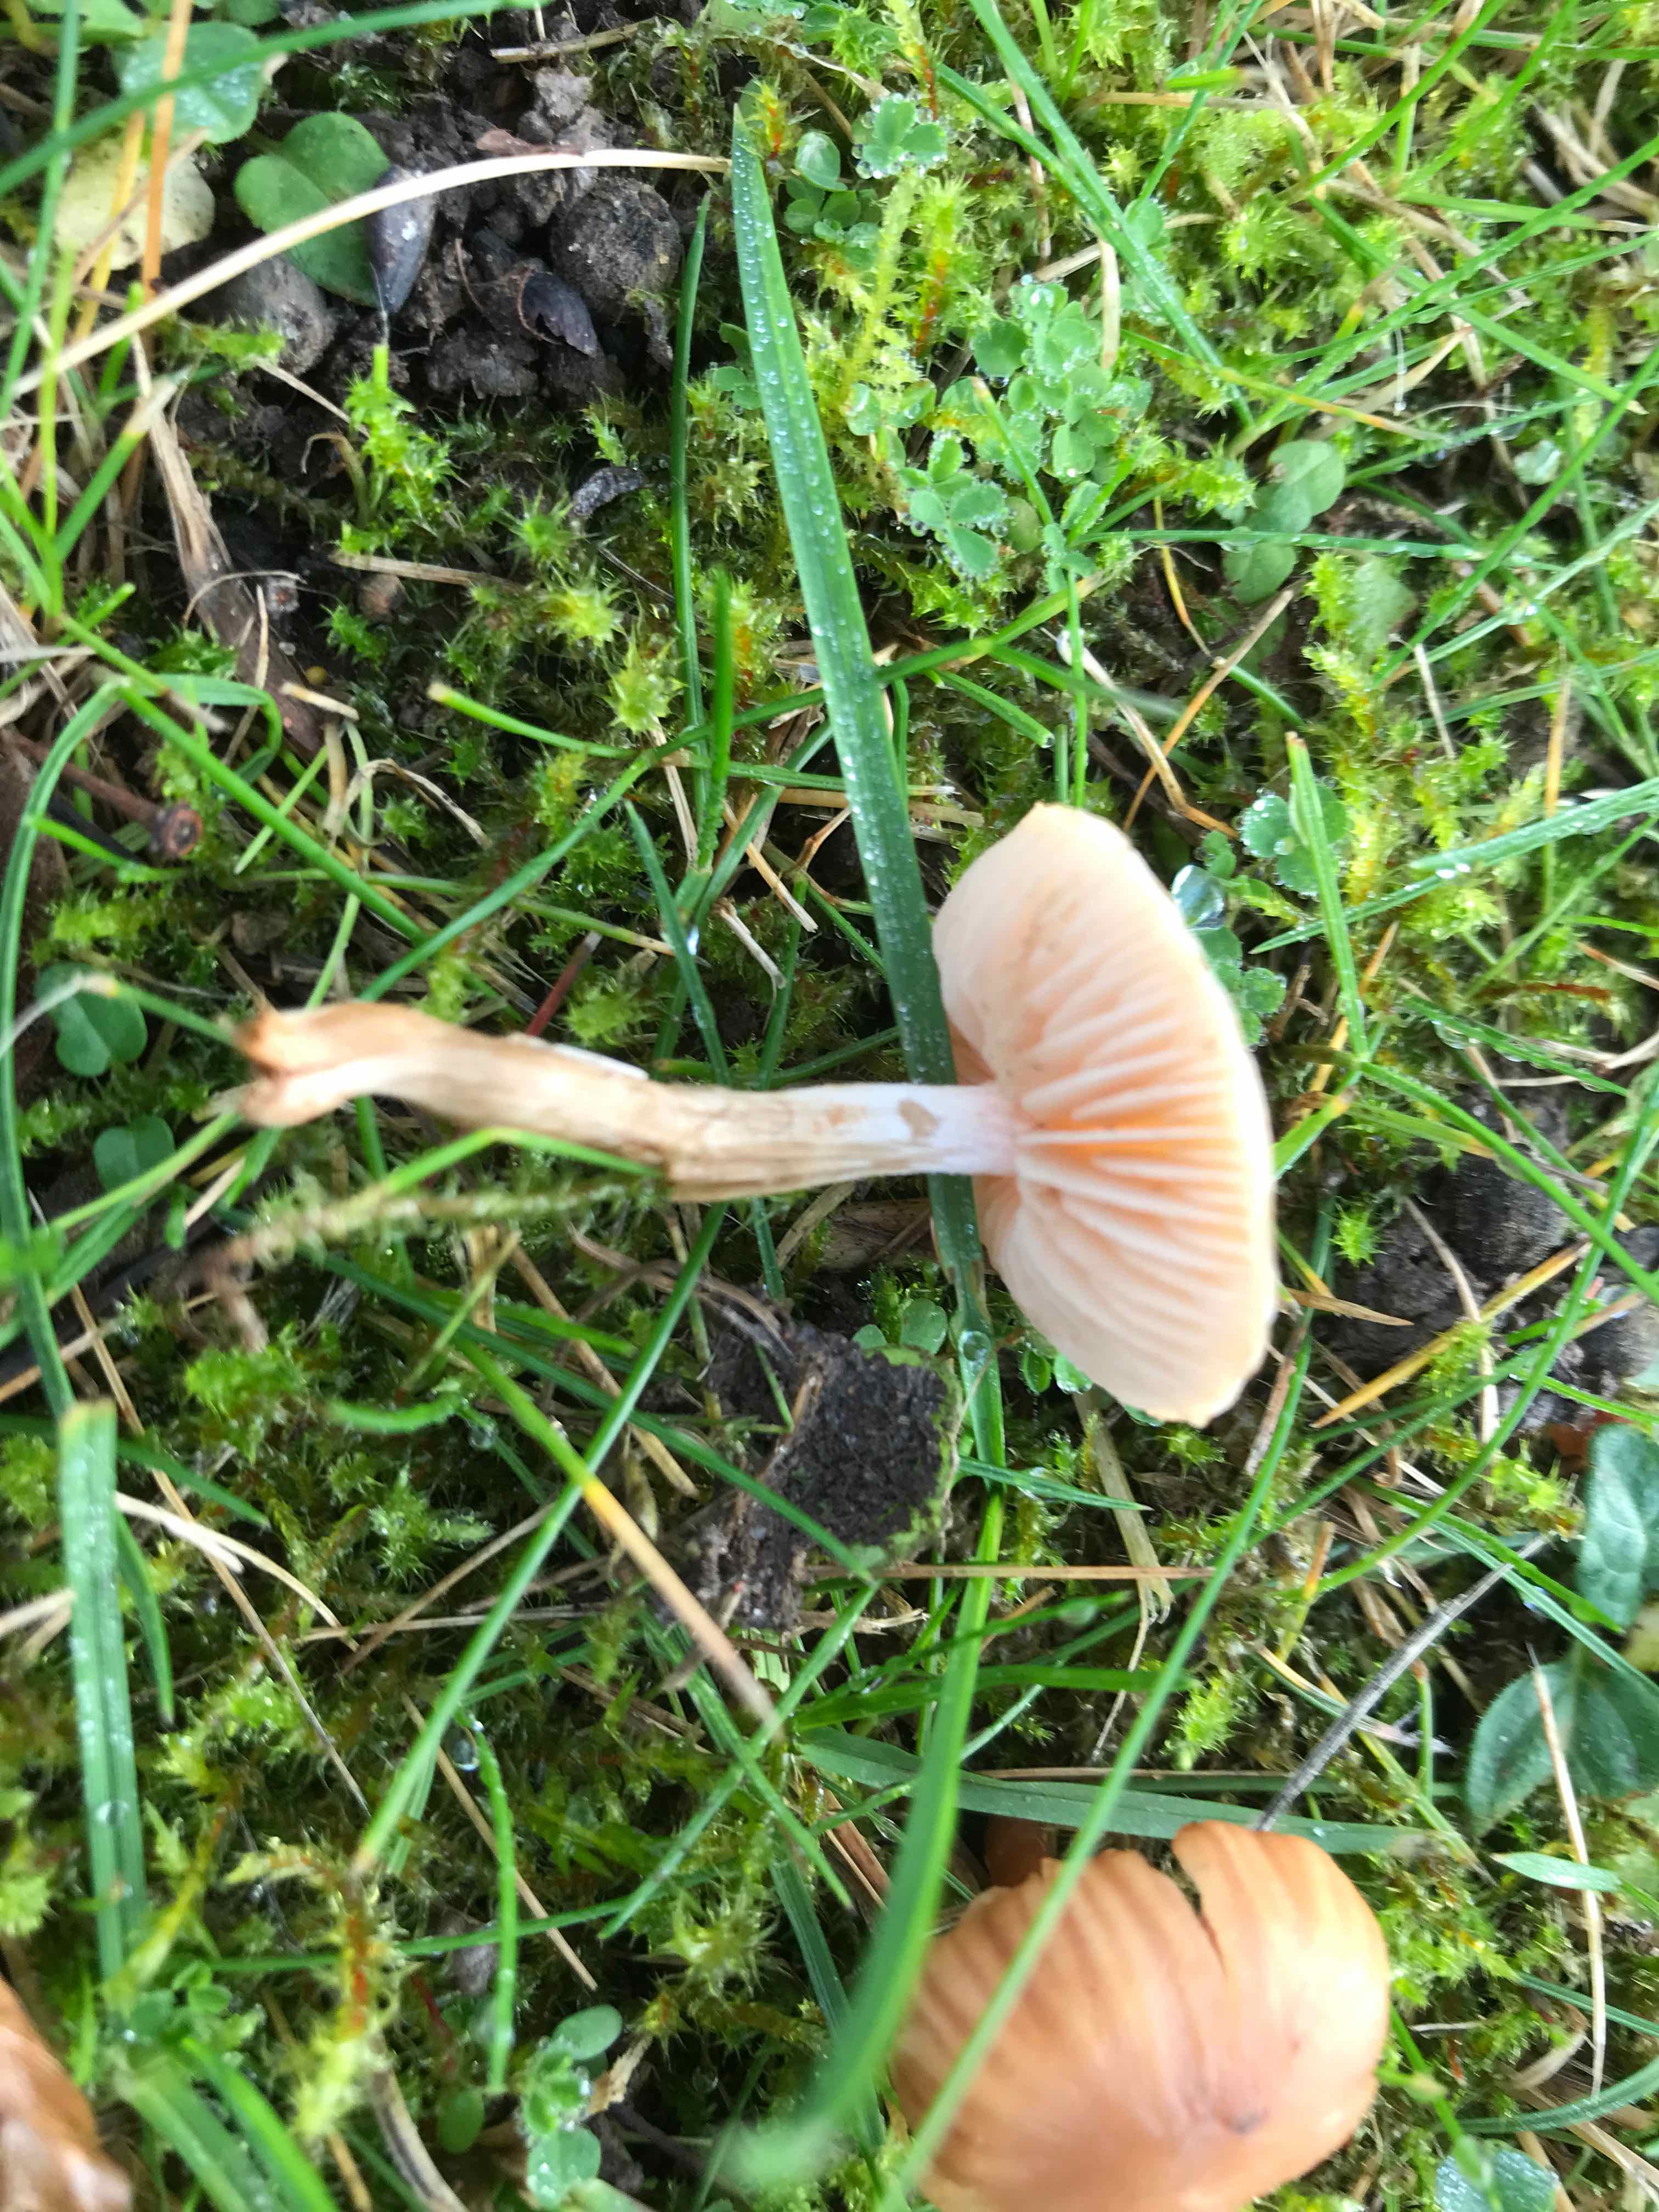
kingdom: Fungi
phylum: Basidiomycota
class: Agaricomycetes
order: Agaricales
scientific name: Agaricales
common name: champignonordenen
